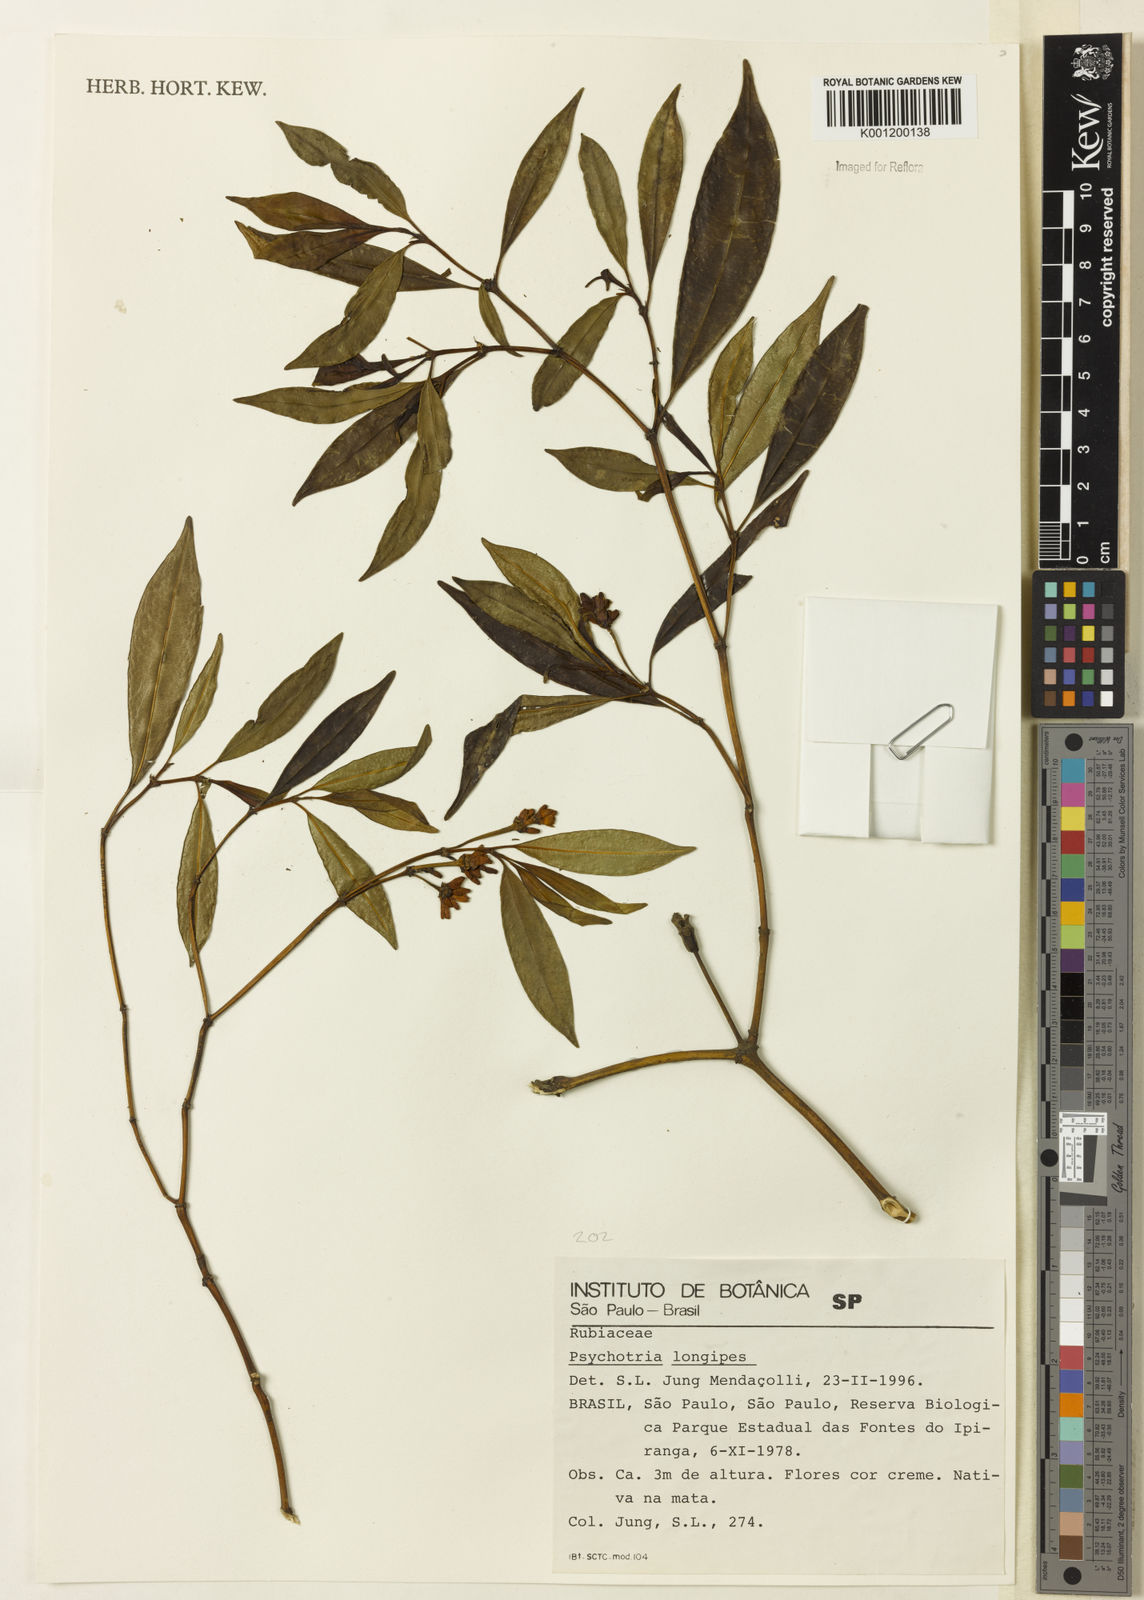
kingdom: Plantae
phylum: Tracheophyta
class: Magnoliopsida
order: Gentianales
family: Rubiaceae
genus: Rudgea
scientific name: Rudgea sessilis
